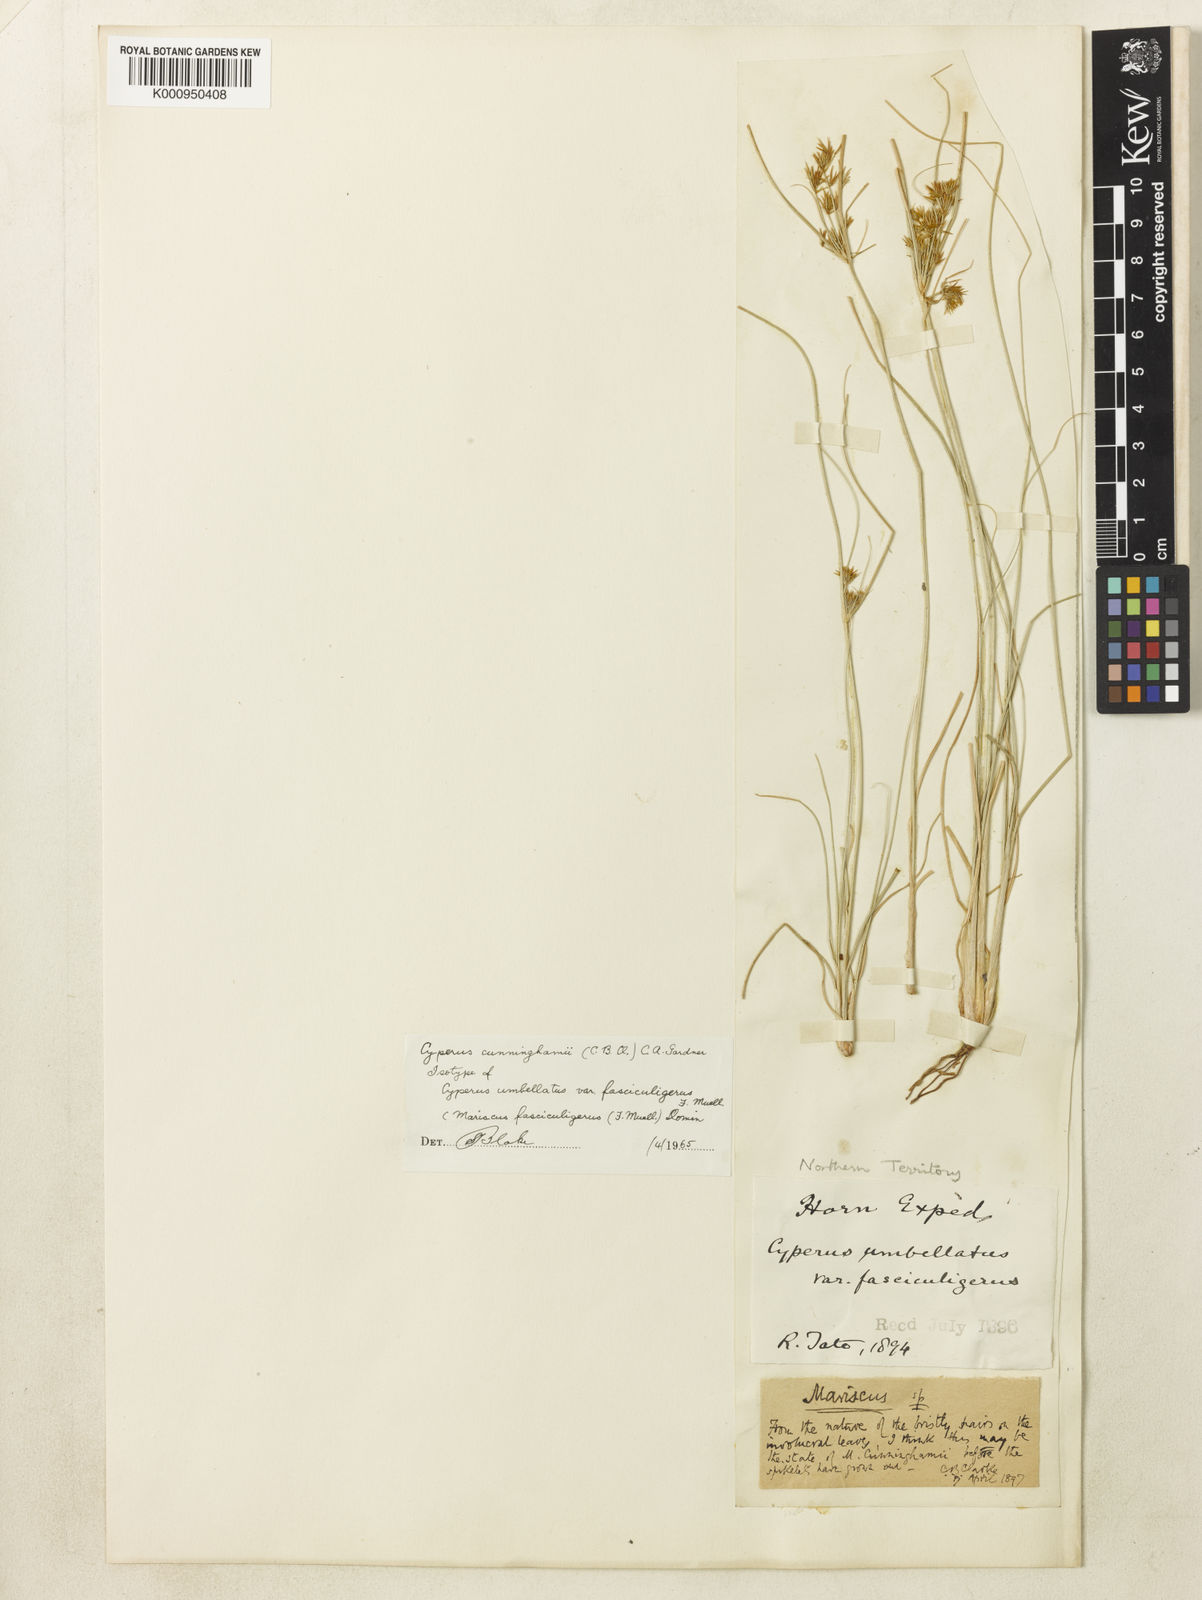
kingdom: Plantae
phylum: Tracheophyta
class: Liliopsida
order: Poales
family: Cyperaceae
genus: Cyperus
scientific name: Cyperus cunninghamii
